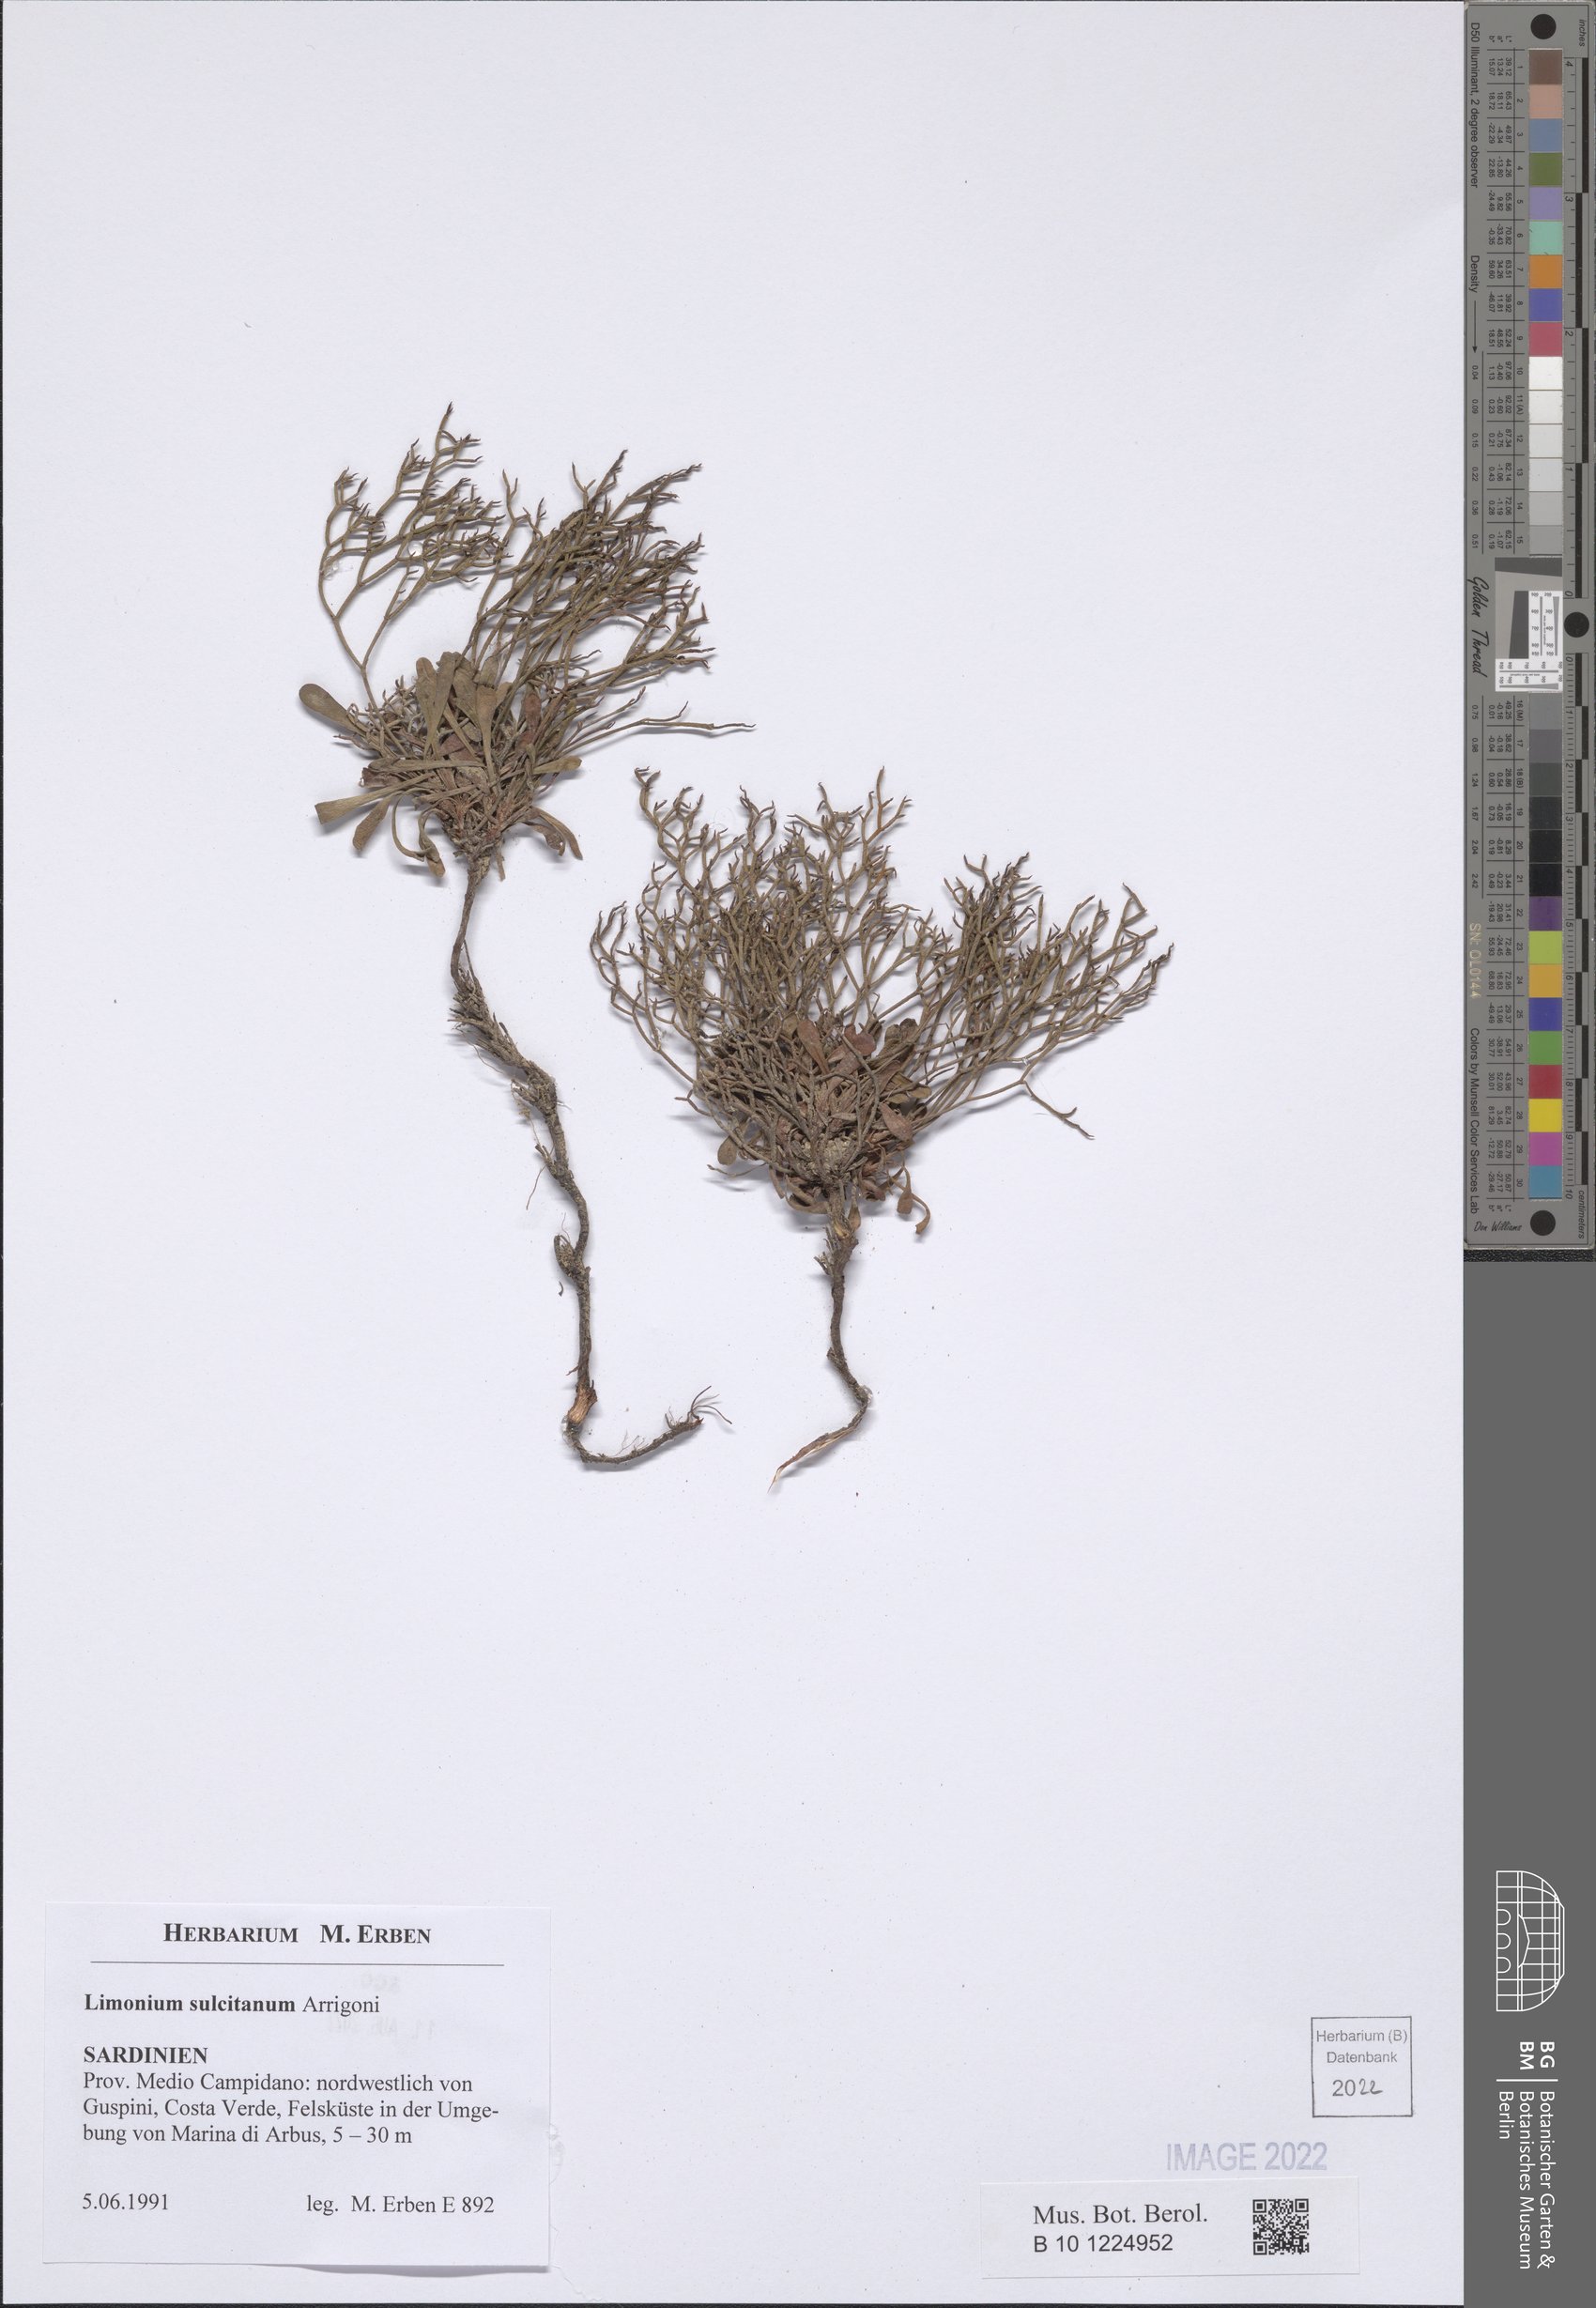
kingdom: Plantae
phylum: Tracheophyta
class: Magnoliopsida
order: Caryophyllales
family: Plumbaginaceae
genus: Limonium
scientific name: Limonium sulcitanum
